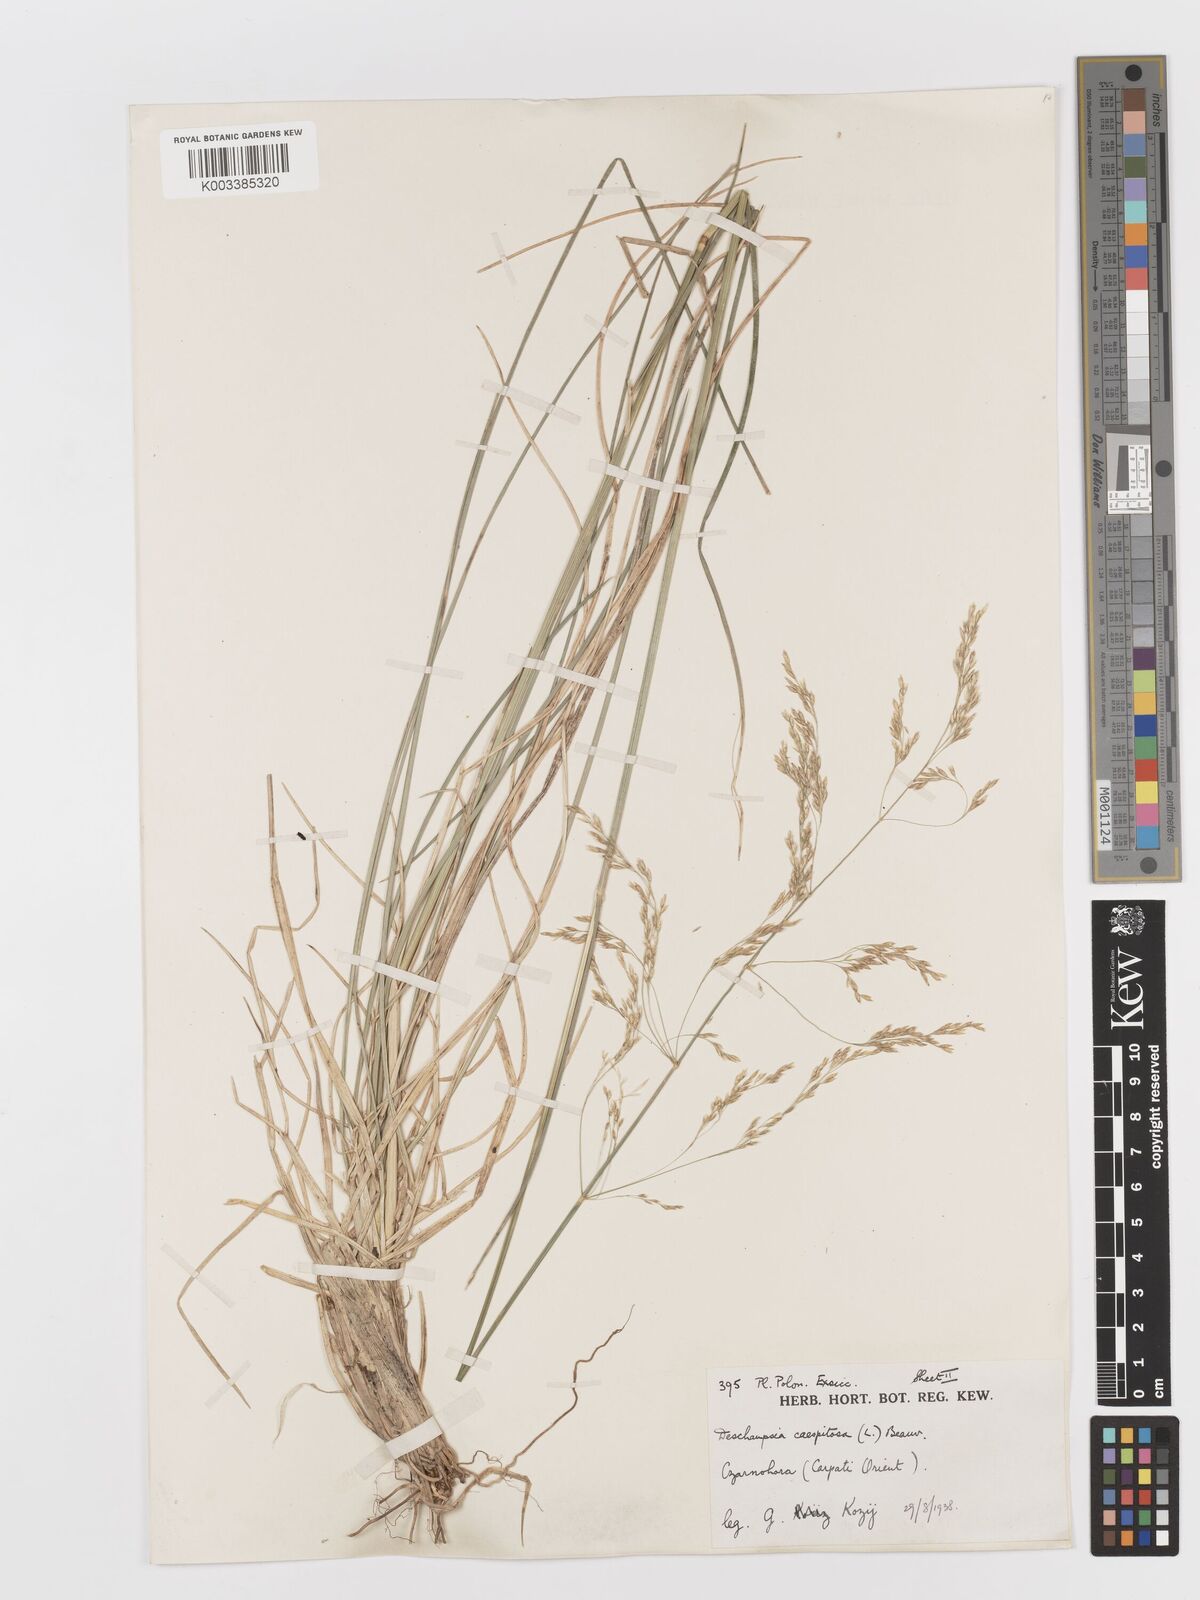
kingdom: Plantae
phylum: Tracheophyta
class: Liliopsida
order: Poales
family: Poaceae
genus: Deschampsia
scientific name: Deschampsia cespitosa
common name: Tufted hair-grass
